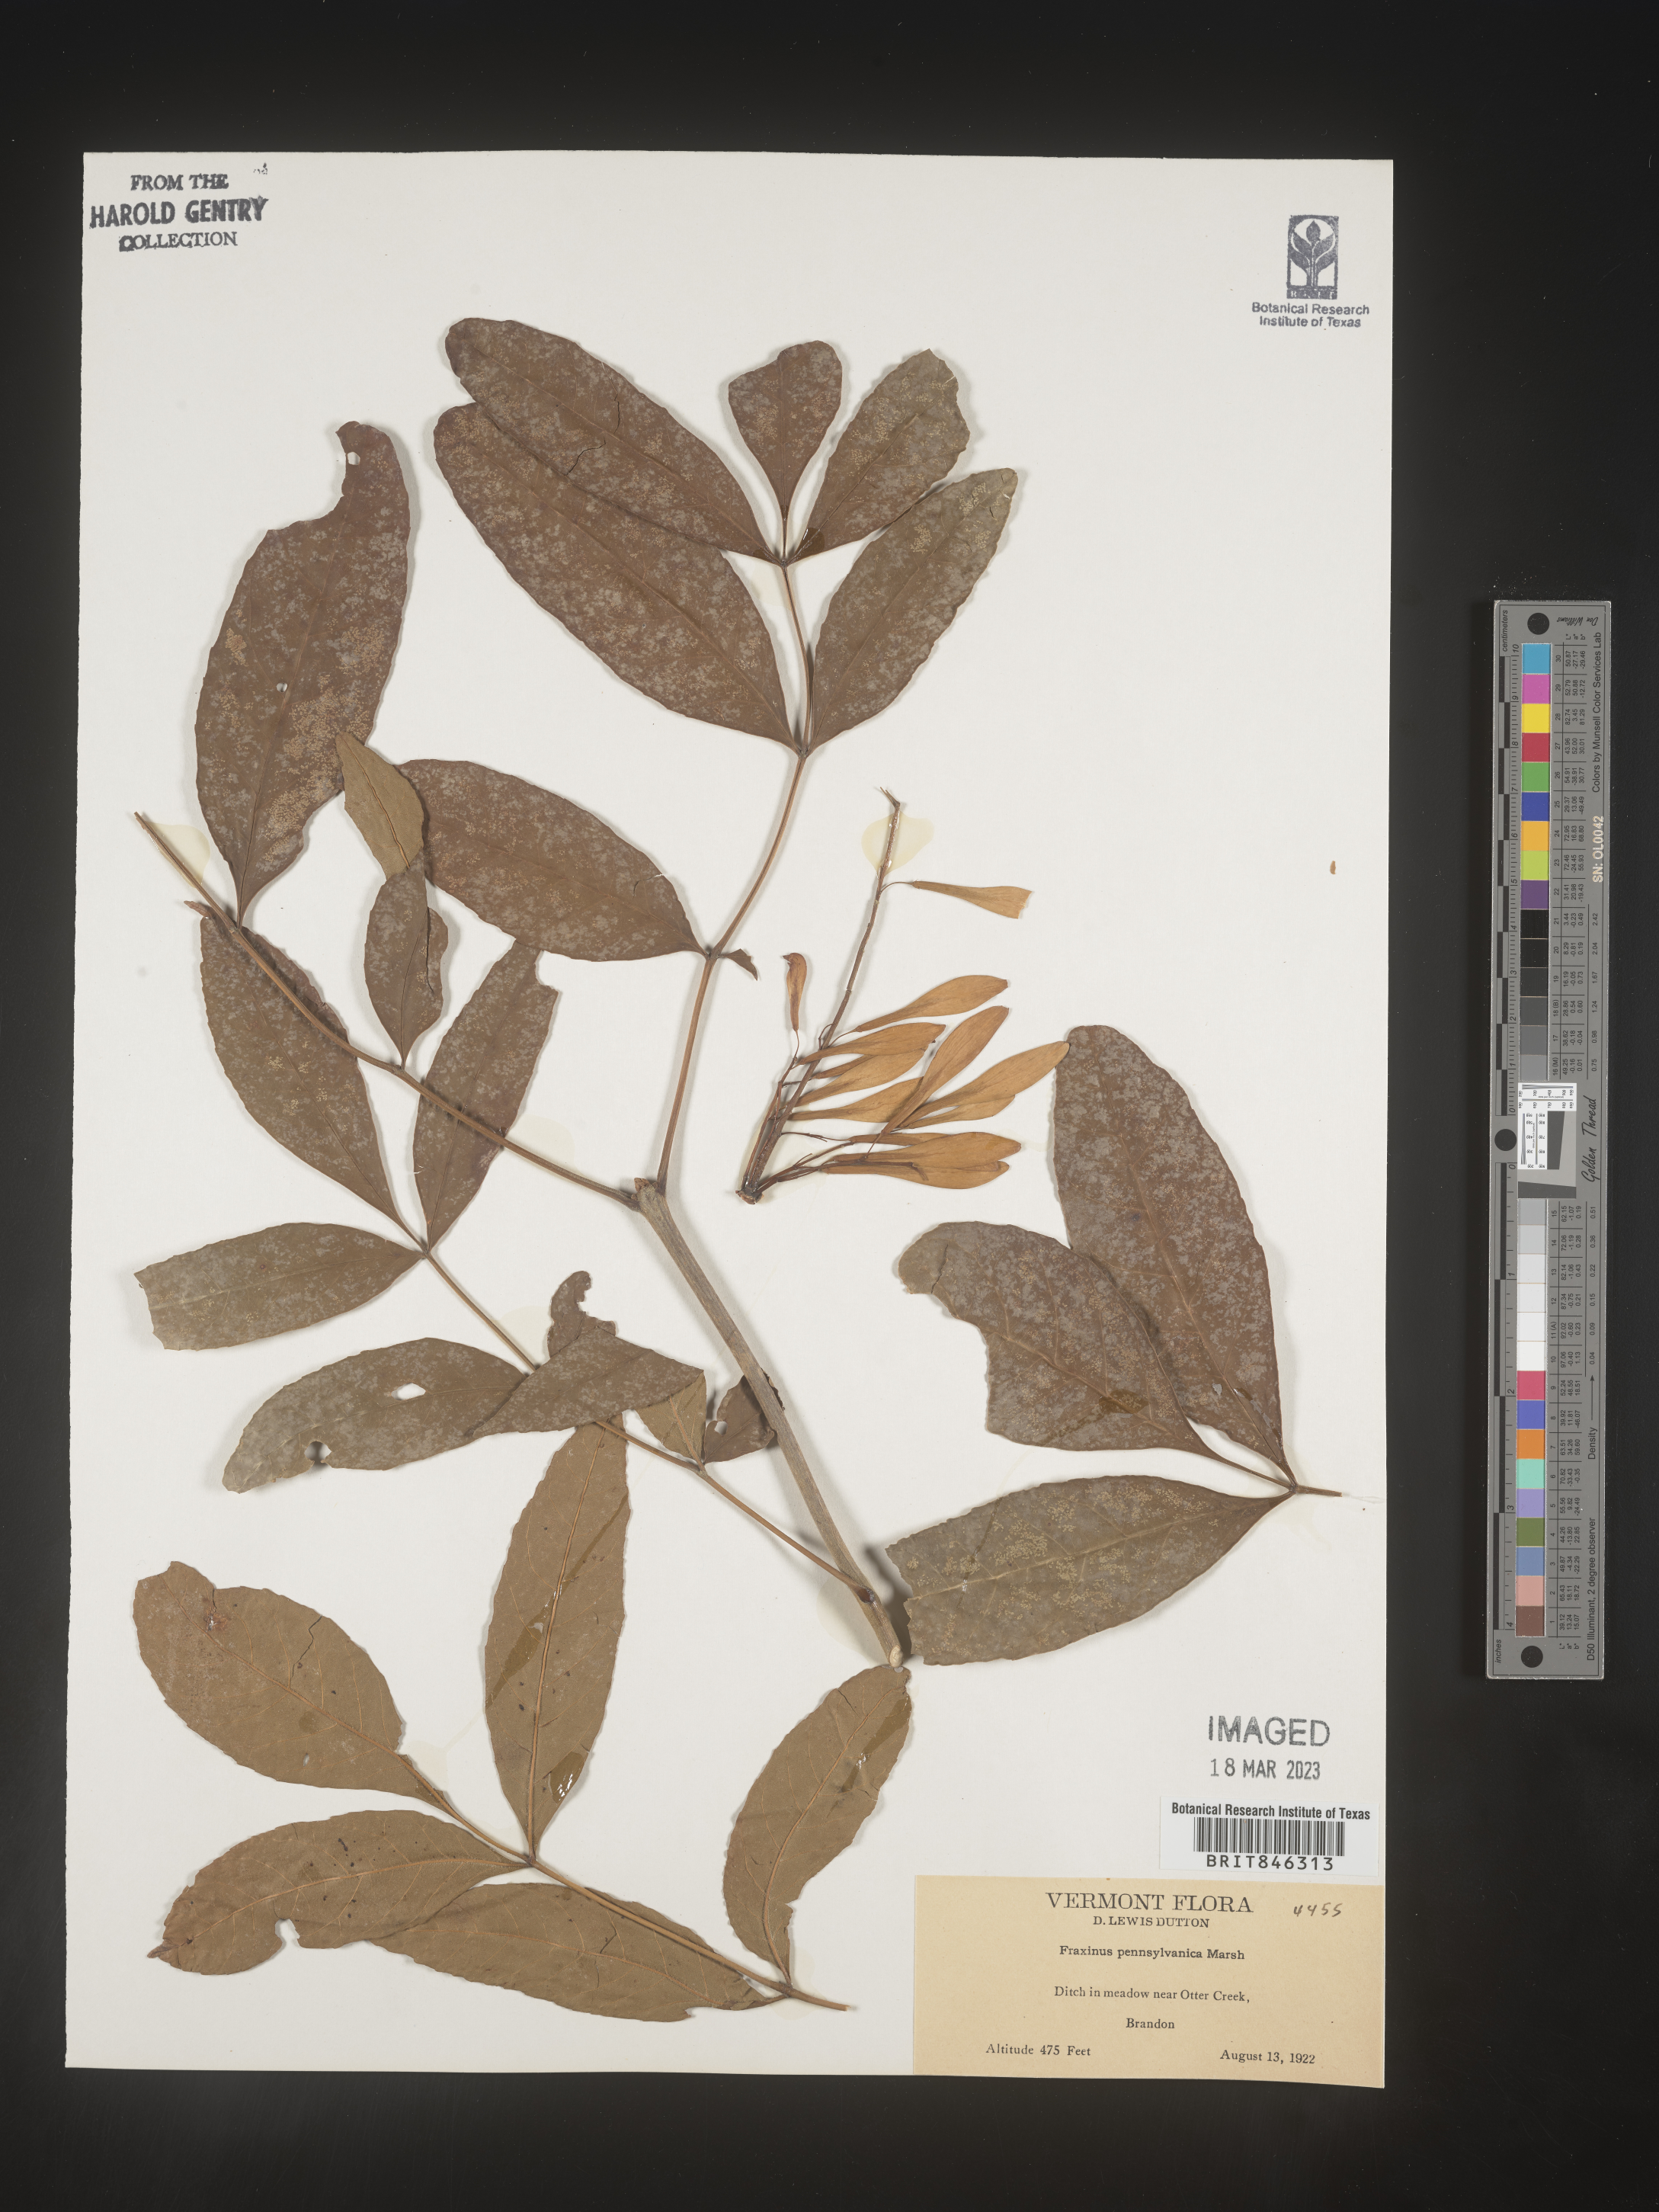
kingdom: Plantae
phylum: Tracheophyta
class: Magnoliopsida
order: Lamiales
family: Oleaceae
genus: Fraxinus
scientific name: Fraxinus pennsylvanica
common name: Green ash
